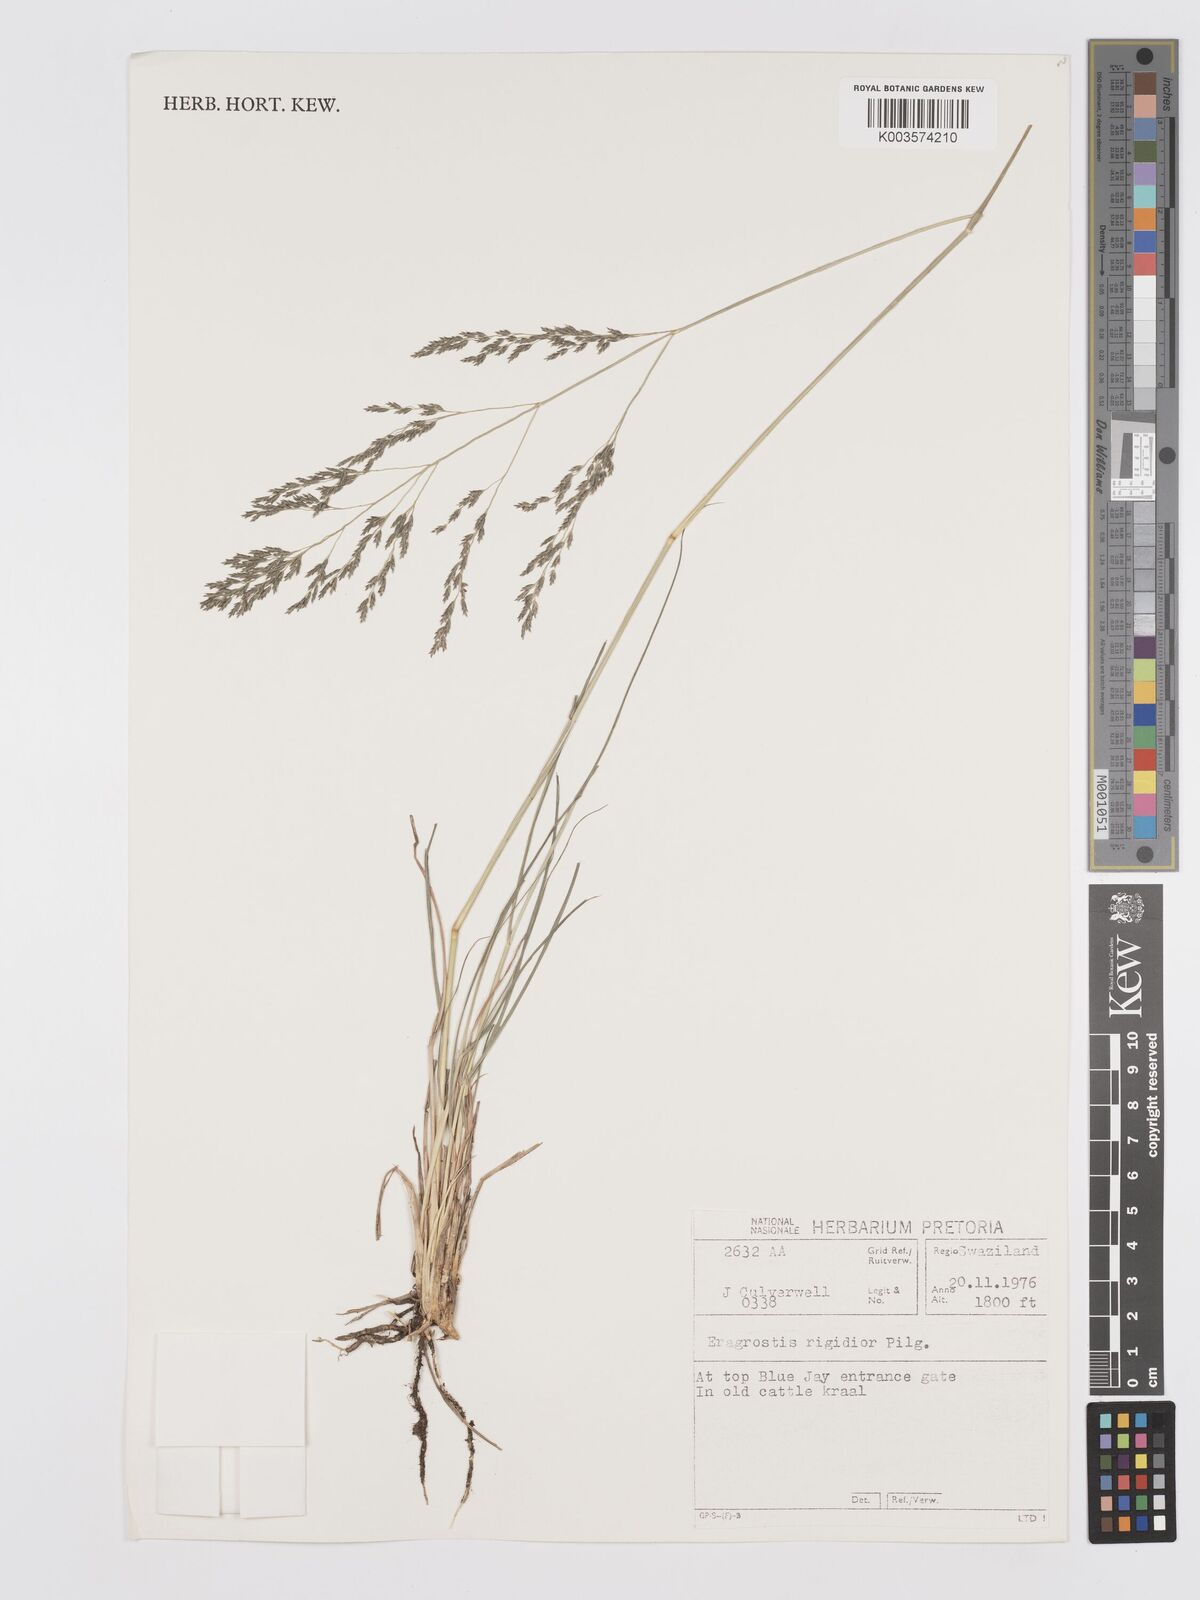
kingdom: Plantae
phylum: Tracheophyta
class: Liliopsida
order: Poales
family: Poaceae
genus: Eragrostis
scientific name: Eragrostis cylindriflora
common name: Cylinderflower lovegrass
